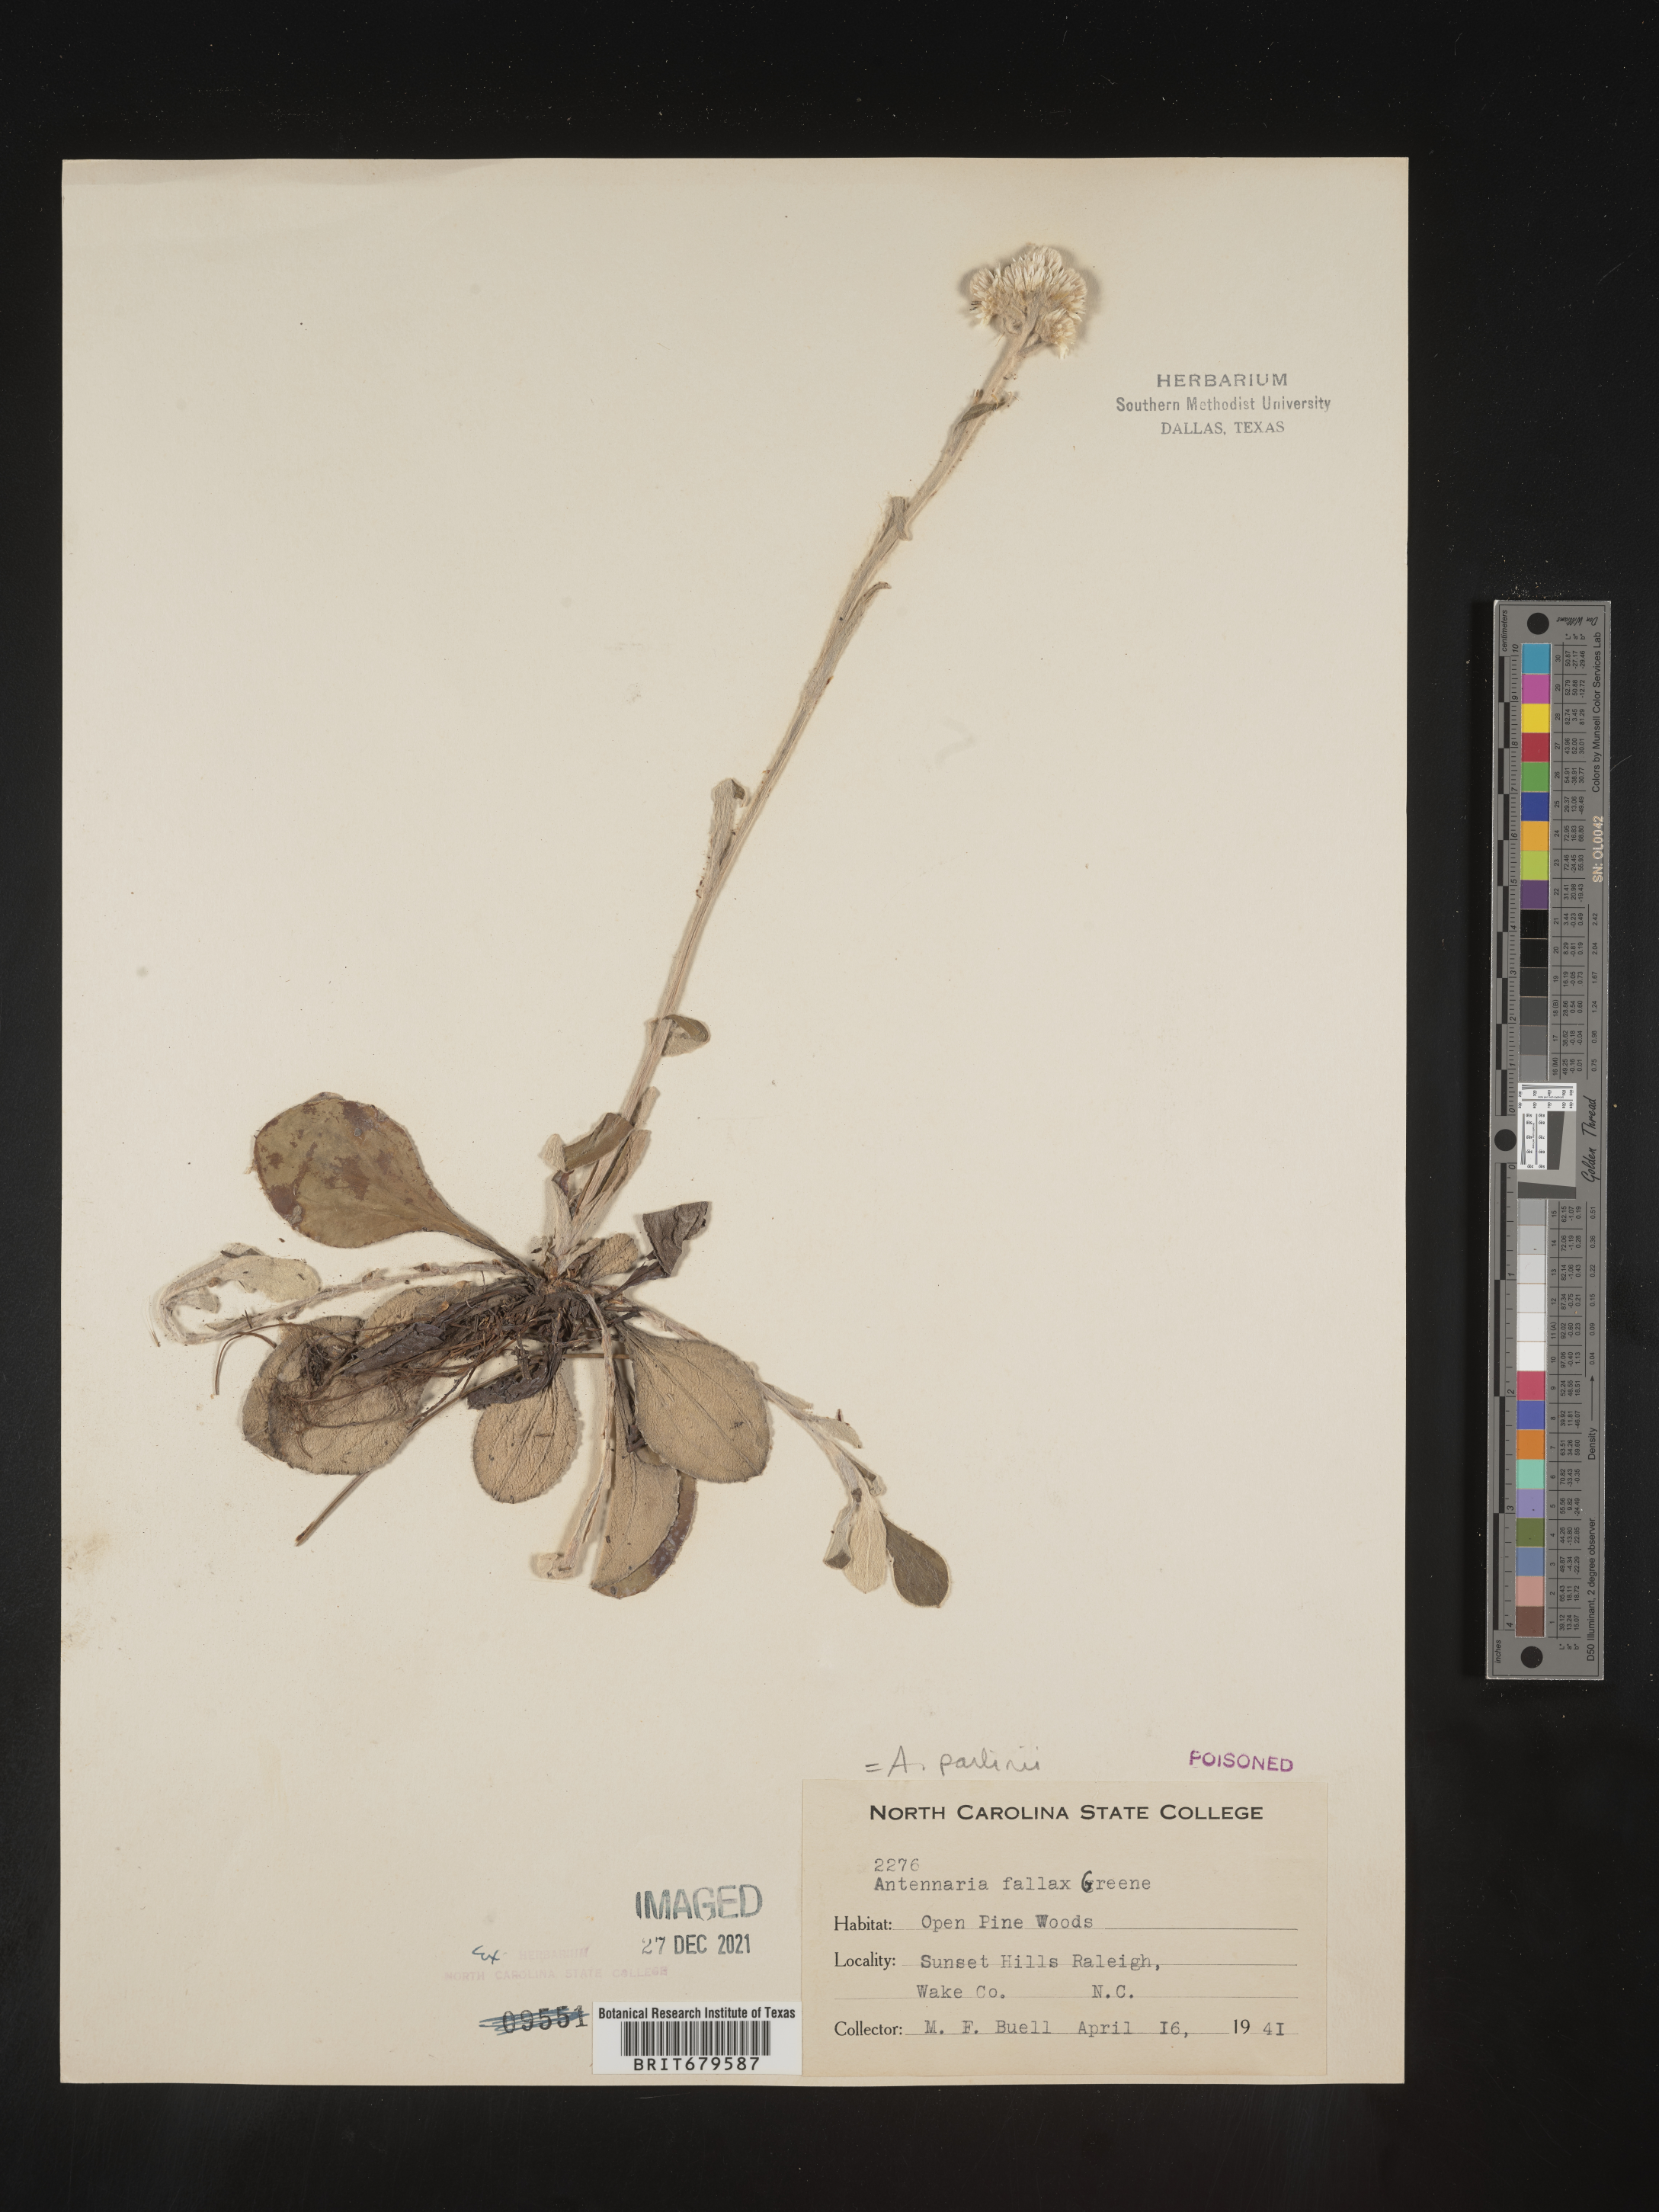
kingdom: Plantae
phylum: Tracheophyta
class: Magnoliopsida
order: Asterales
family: Asteraceae
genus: Antennaria
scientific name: Antennaria parlinii
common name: Parlin's pussytoes
